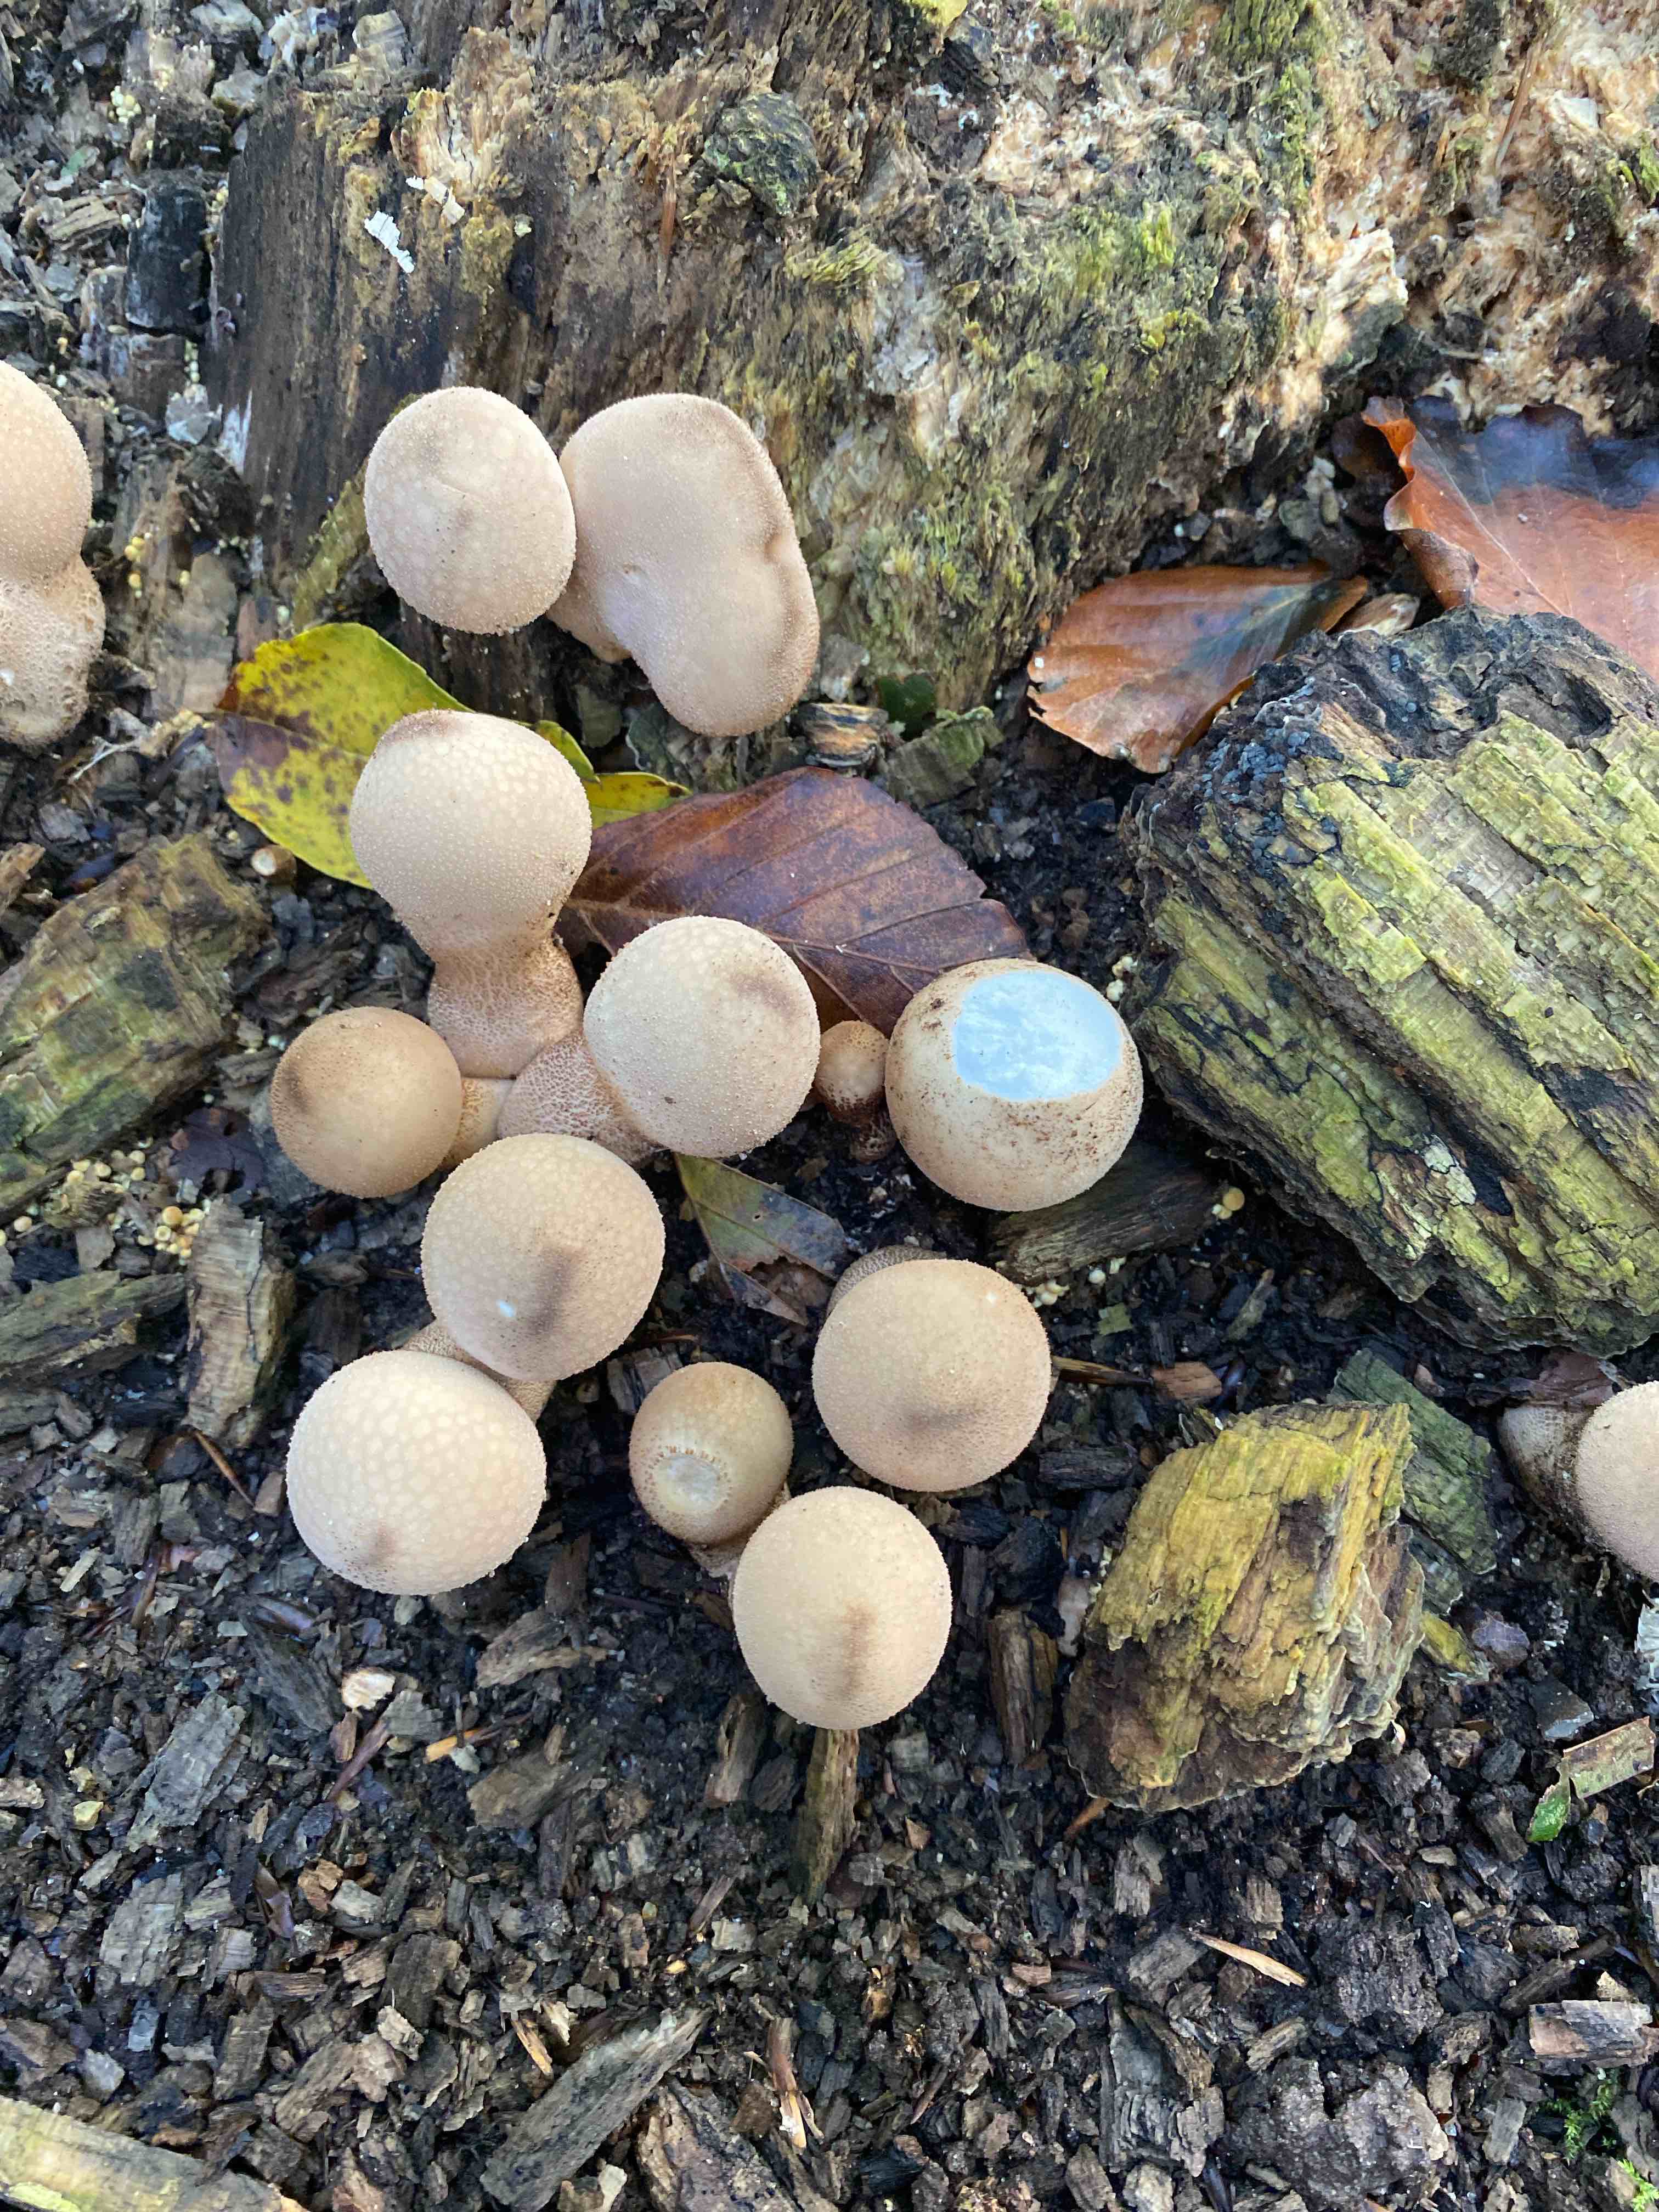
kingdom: Fungi
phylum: Basidiomycota
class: Agaricomycetes
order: Agaricales
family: Lycoperdaceae
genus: Apioperdon
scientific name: Apioperdon pyriforme
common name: pære-støvbold
